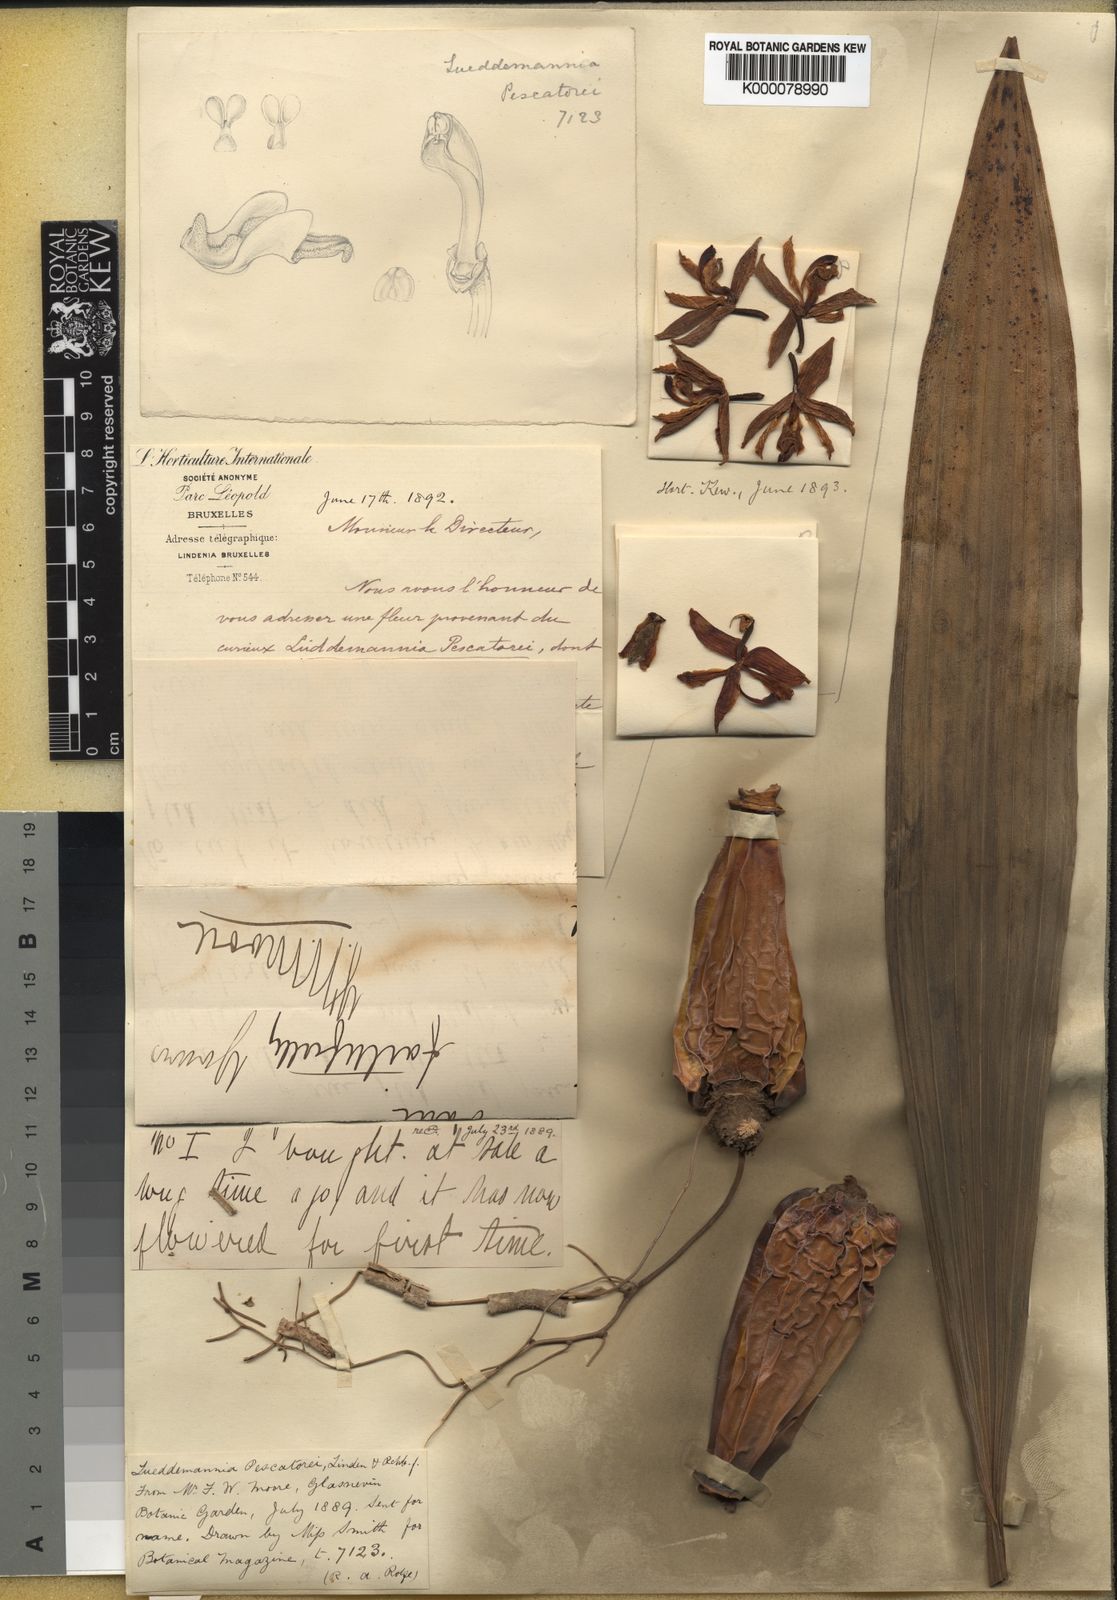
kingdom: Plantae
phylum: Tracheophyta
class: Liliopsida
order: Asparagales
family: Orchidaceae
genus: Lueddemannia
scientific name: Lueddemannia pescatorei
